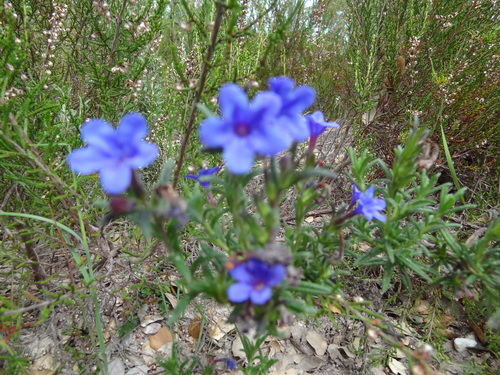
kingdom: Plantae
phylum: Tracheophyta
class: Magnoliopsida
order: Boraginales
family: Boraginaceae
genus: Glandora
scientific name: Glandora prostrata
